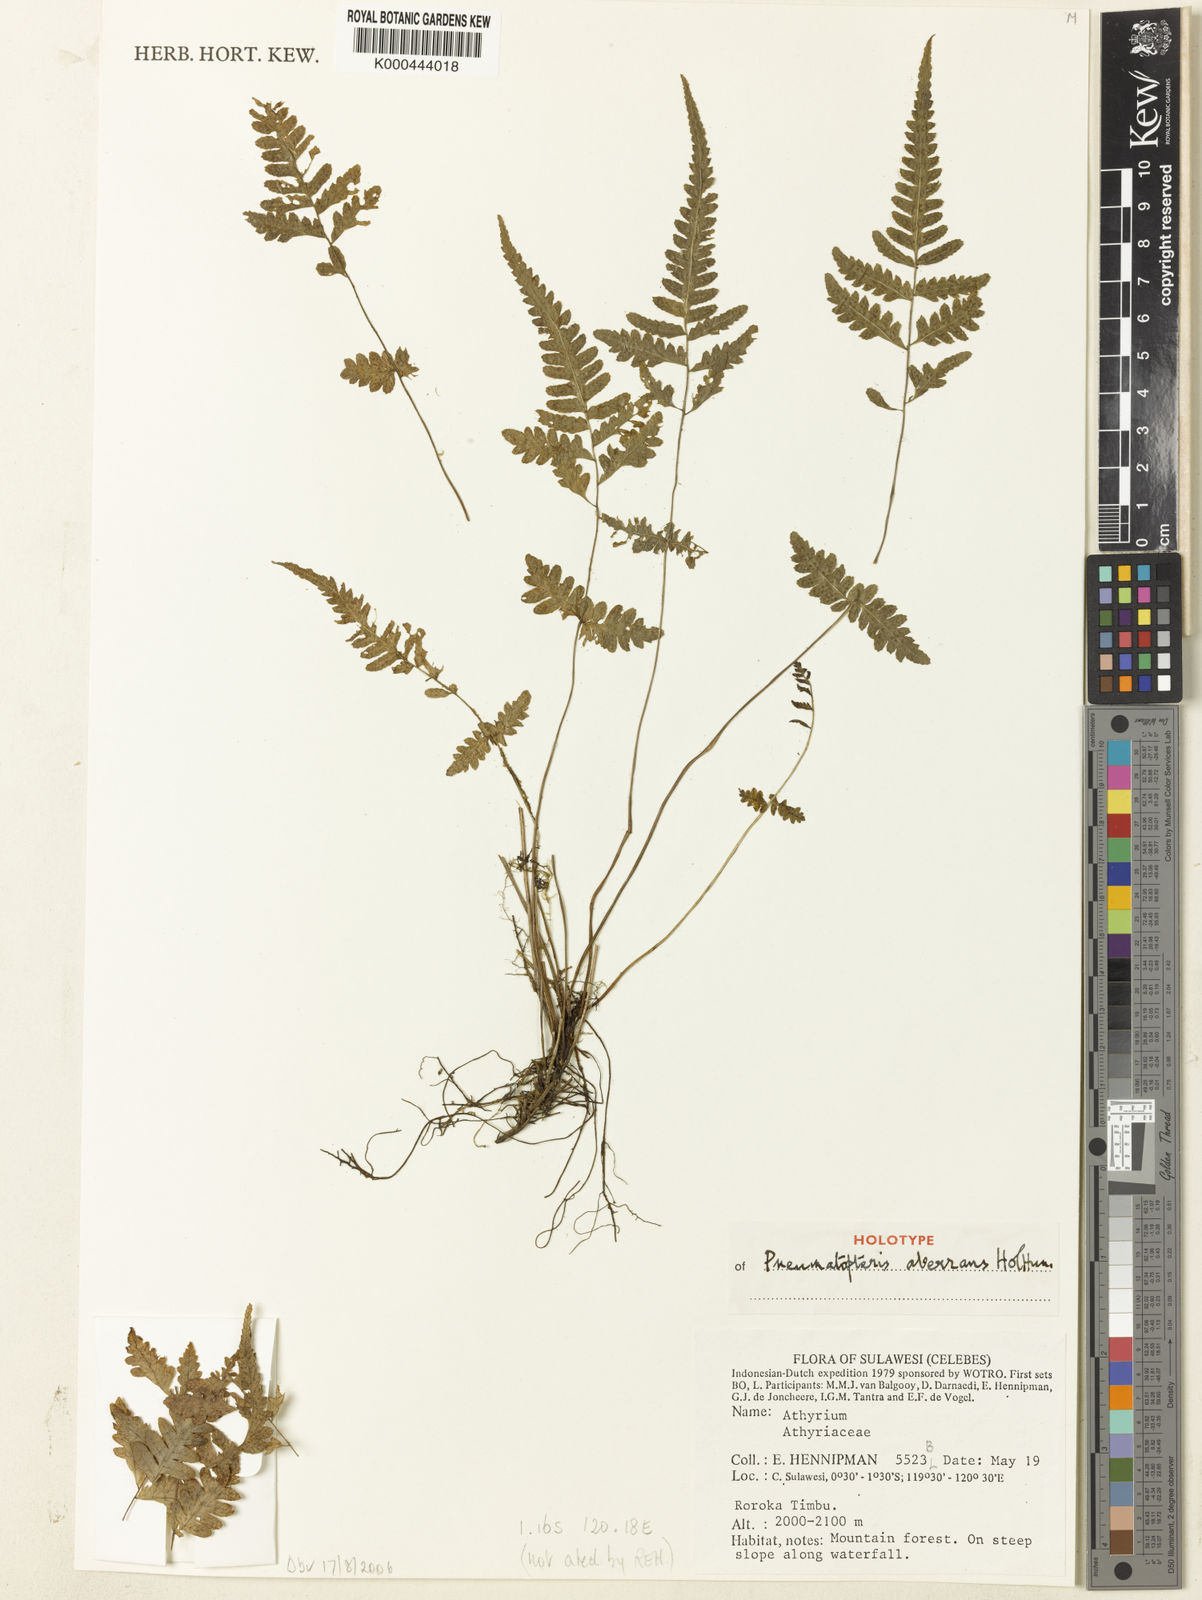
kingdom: Plantae
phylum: Tracheophyta
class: Polypodiopsida
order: Polypodiales
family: Thelypteridaceae
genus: Pneumatopteris
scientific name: Pneumatopteris aberrans
